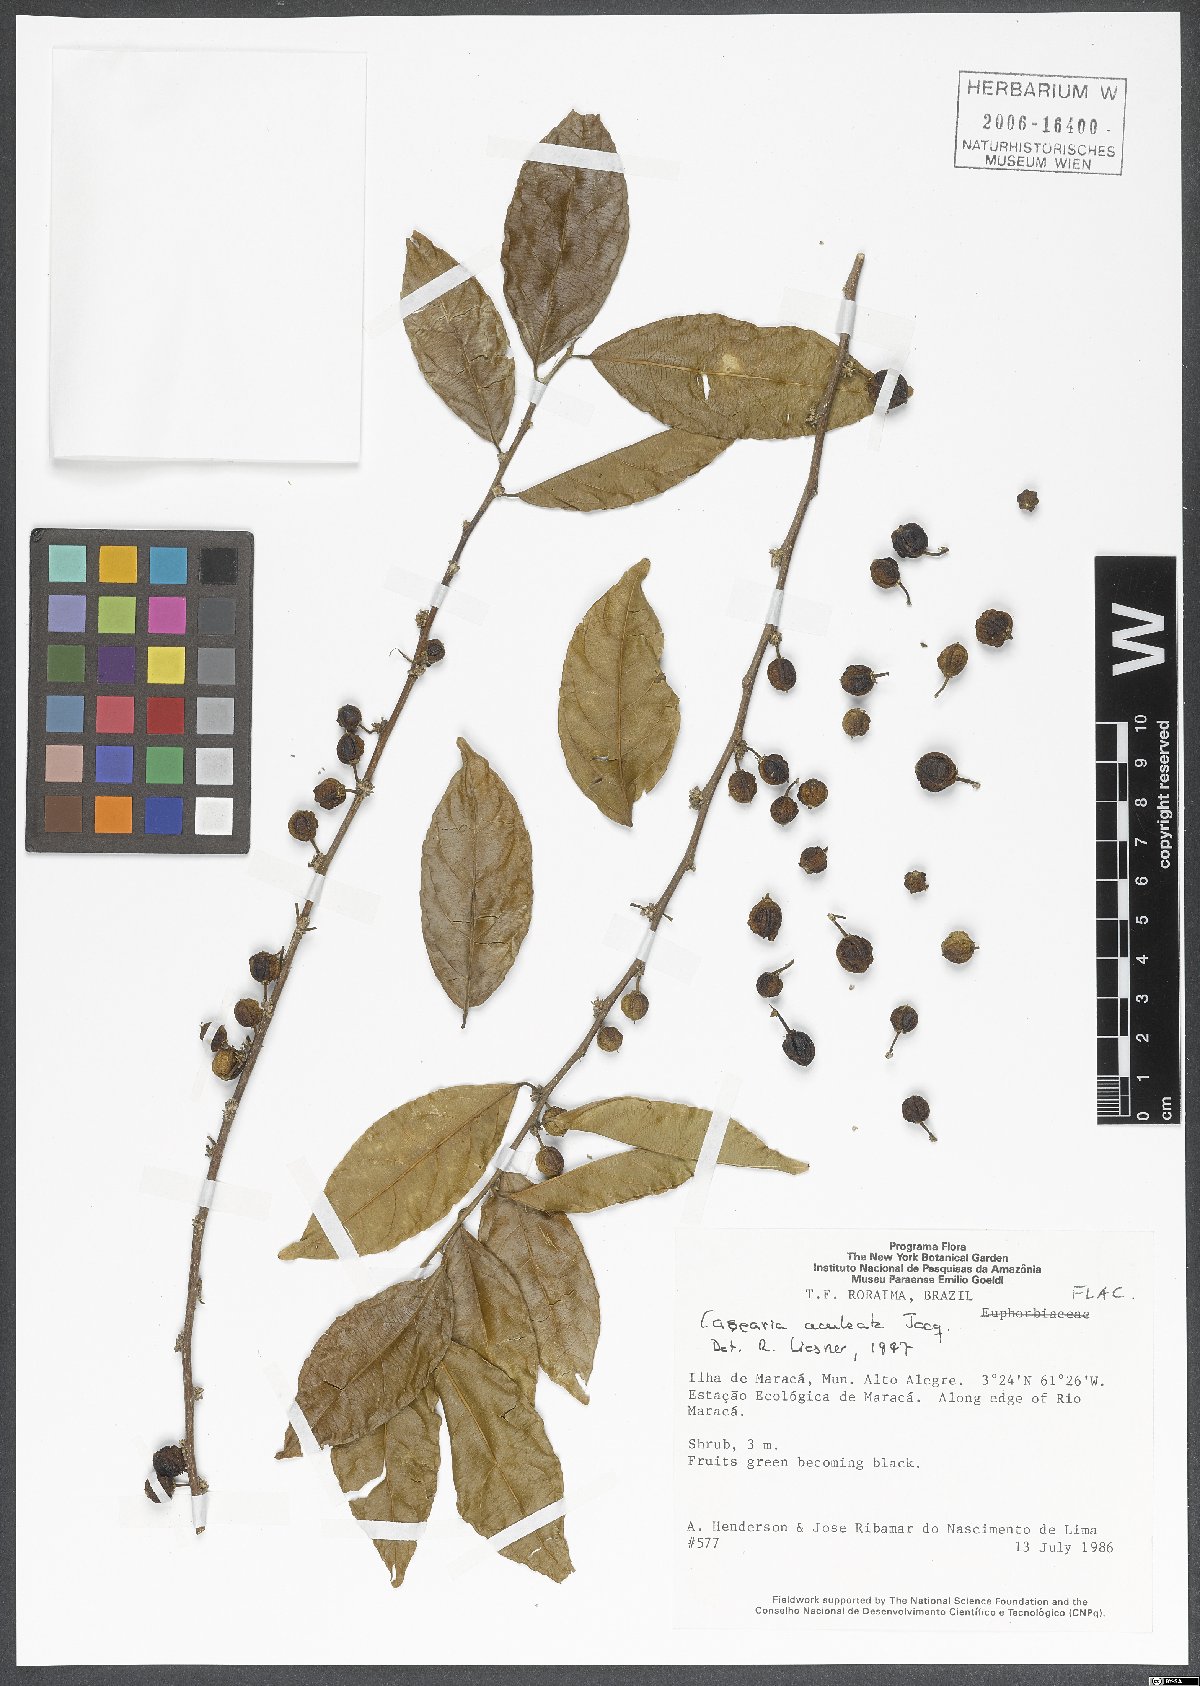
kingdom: Plantae
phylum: Tracheophyta
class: Magnoliopsida
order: Malpighiales
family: Salicaceae
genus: Casearia
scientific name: Casearia aculeata
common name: Cockspur
